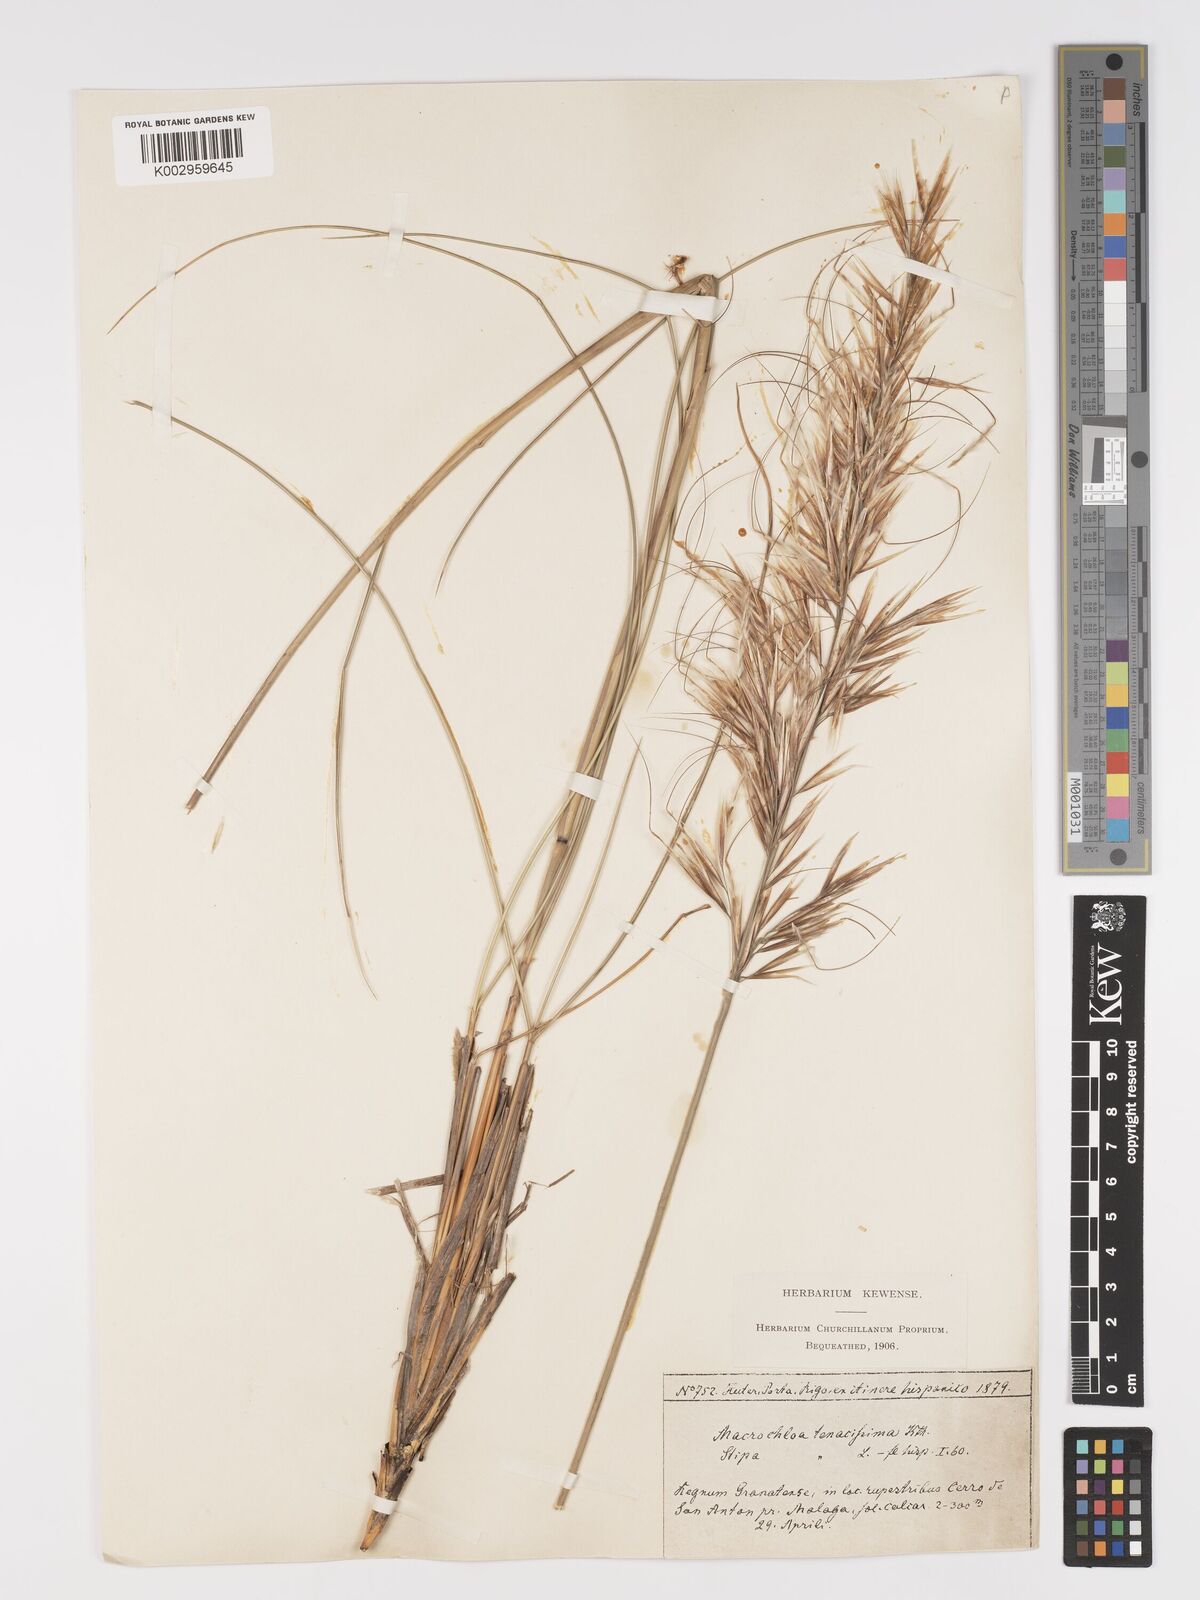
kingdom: Plantae
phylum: Tracheophyta
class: Liliopsida
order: Poales
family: Poaceae
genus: Macrochloa
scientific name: Macrochloa tenacissima
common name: Alfa grass
